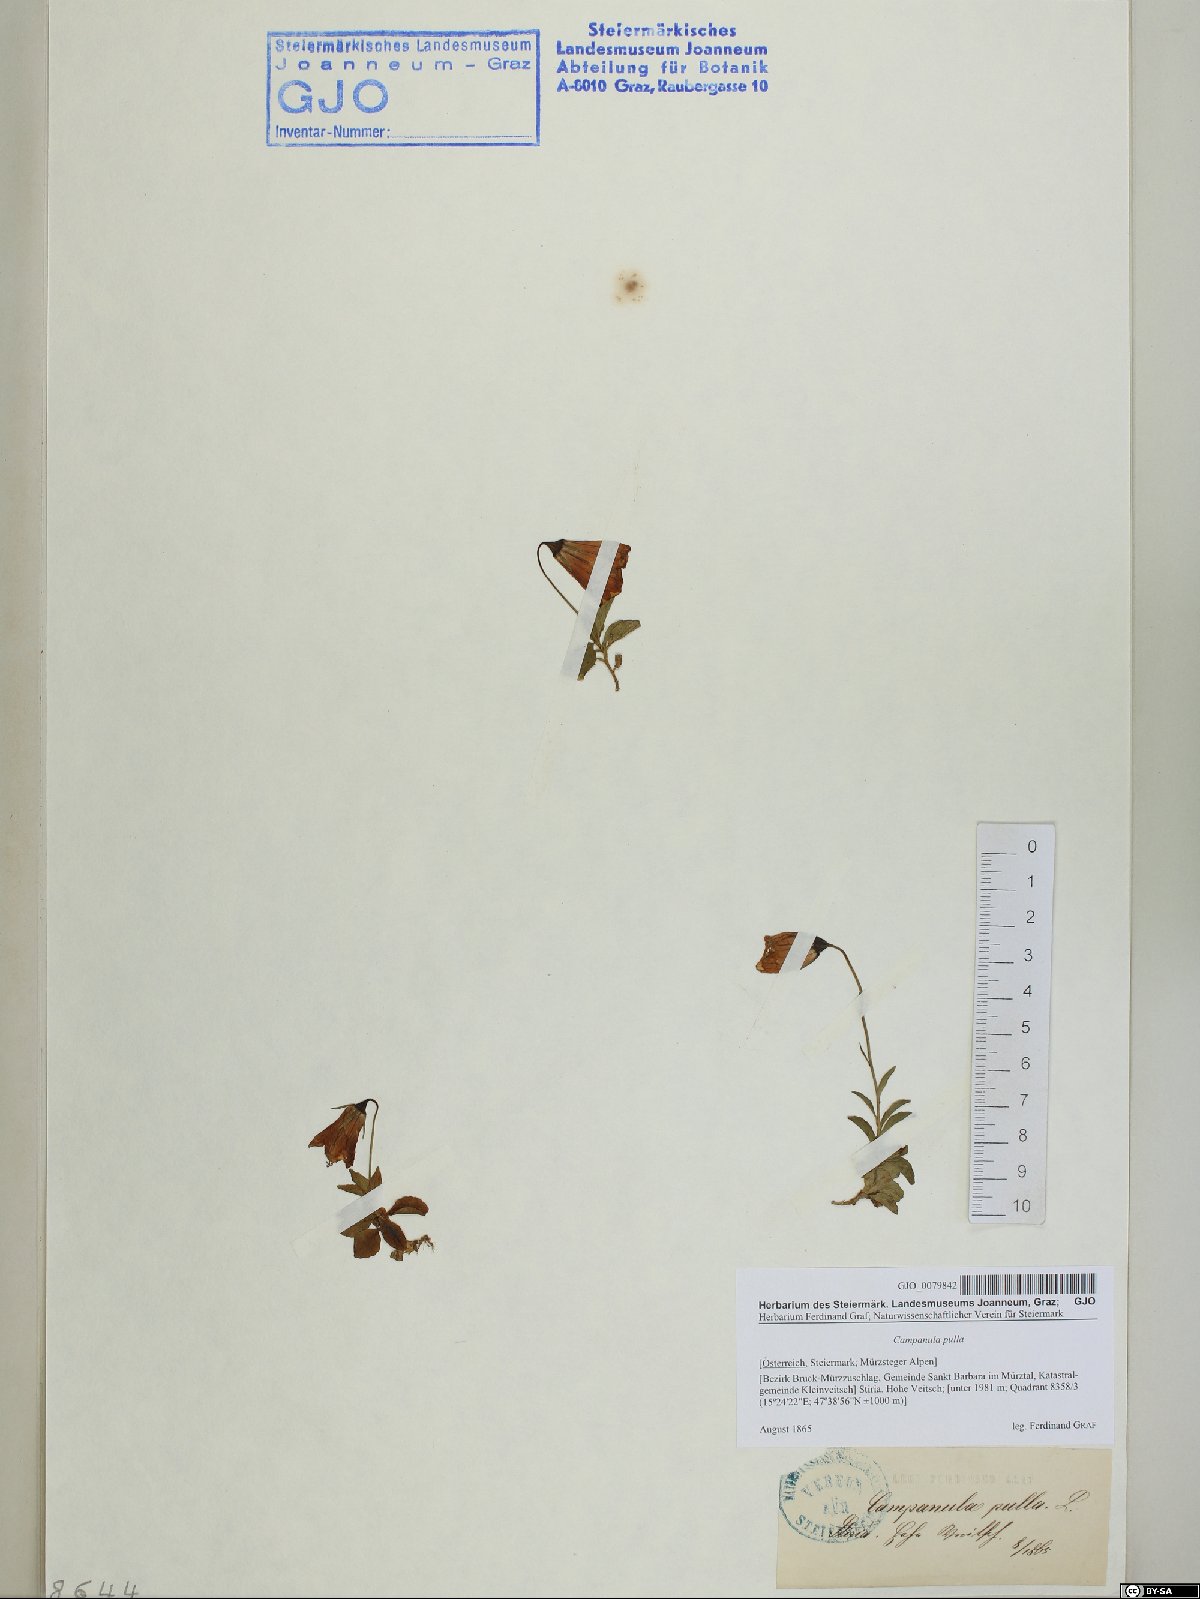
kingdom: Plantae
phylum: Tracheophyta
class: Magnoliopsida
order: Asterales
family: Campanulaceae
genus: Campanula
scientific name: Campanula pulla
